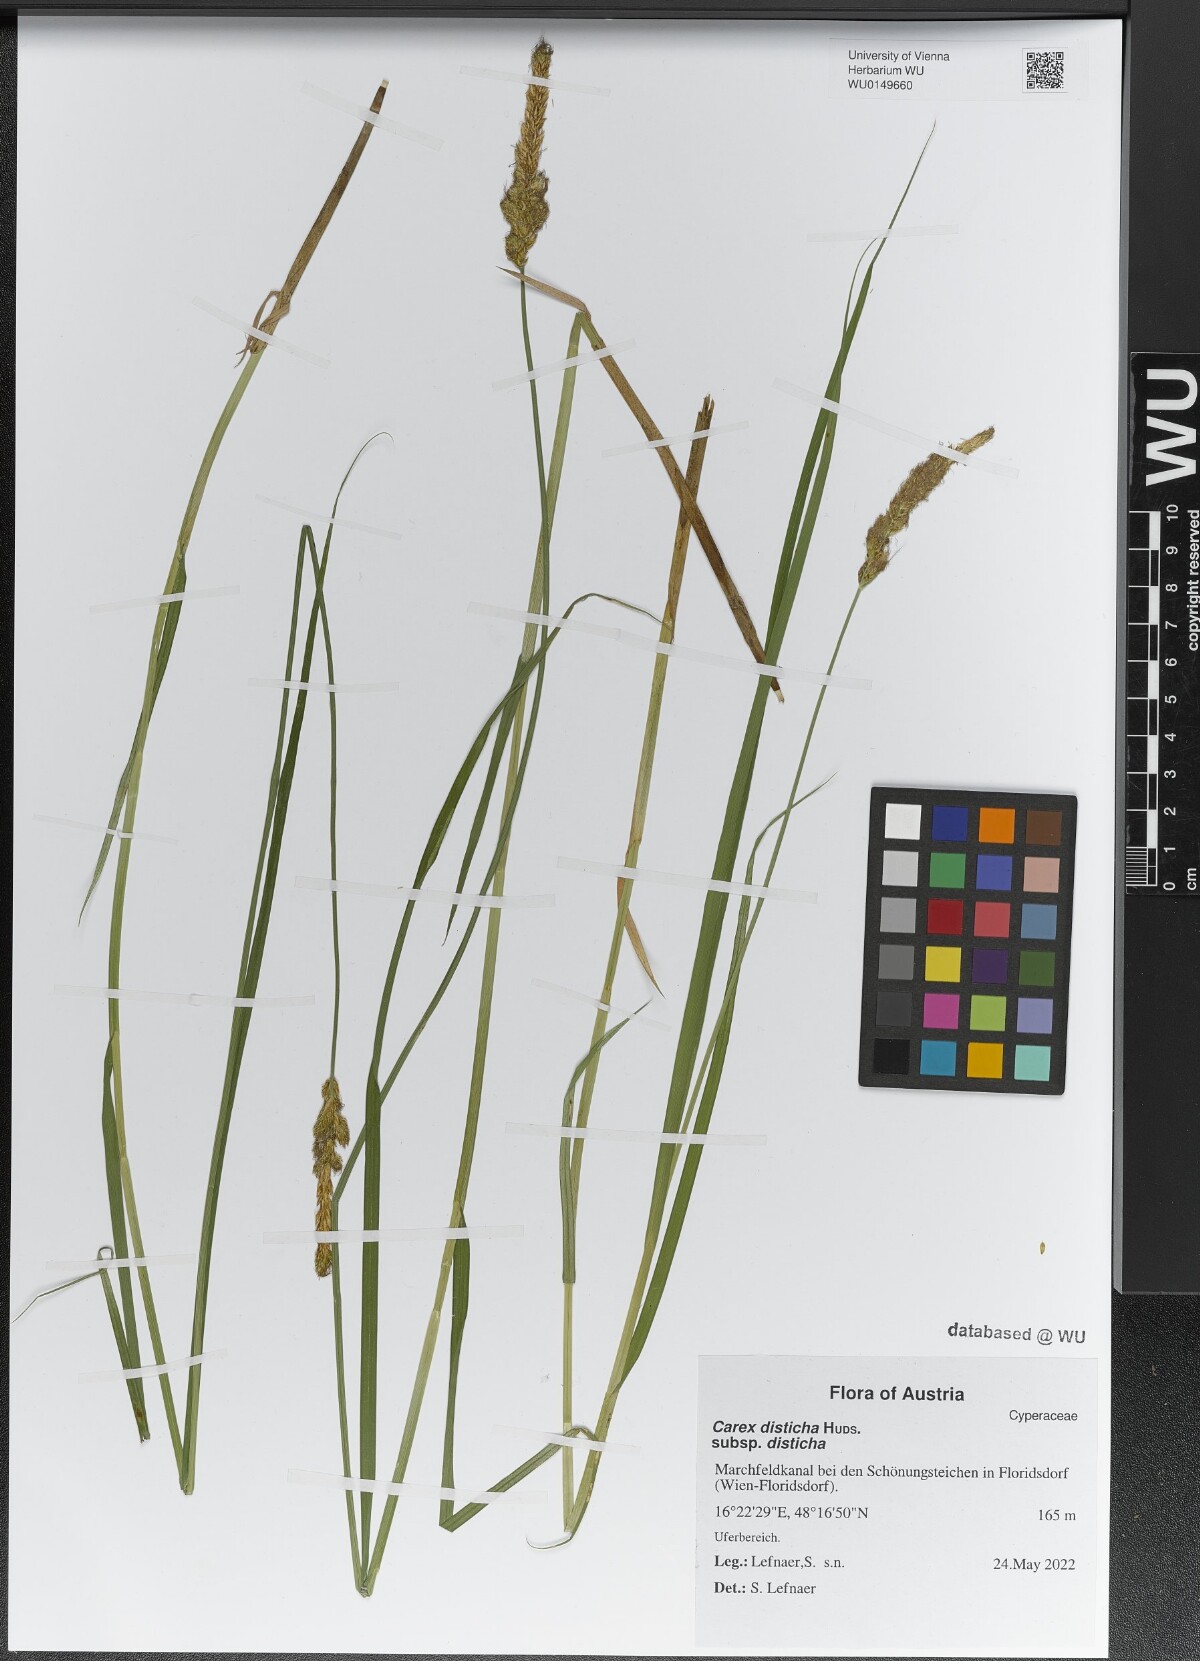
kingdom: Plantae
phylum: Tracheophyta
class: Liliopsida
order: Poales
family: Cyperaceae
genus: Carex
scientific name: Carex disticha
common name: Brown sedge
